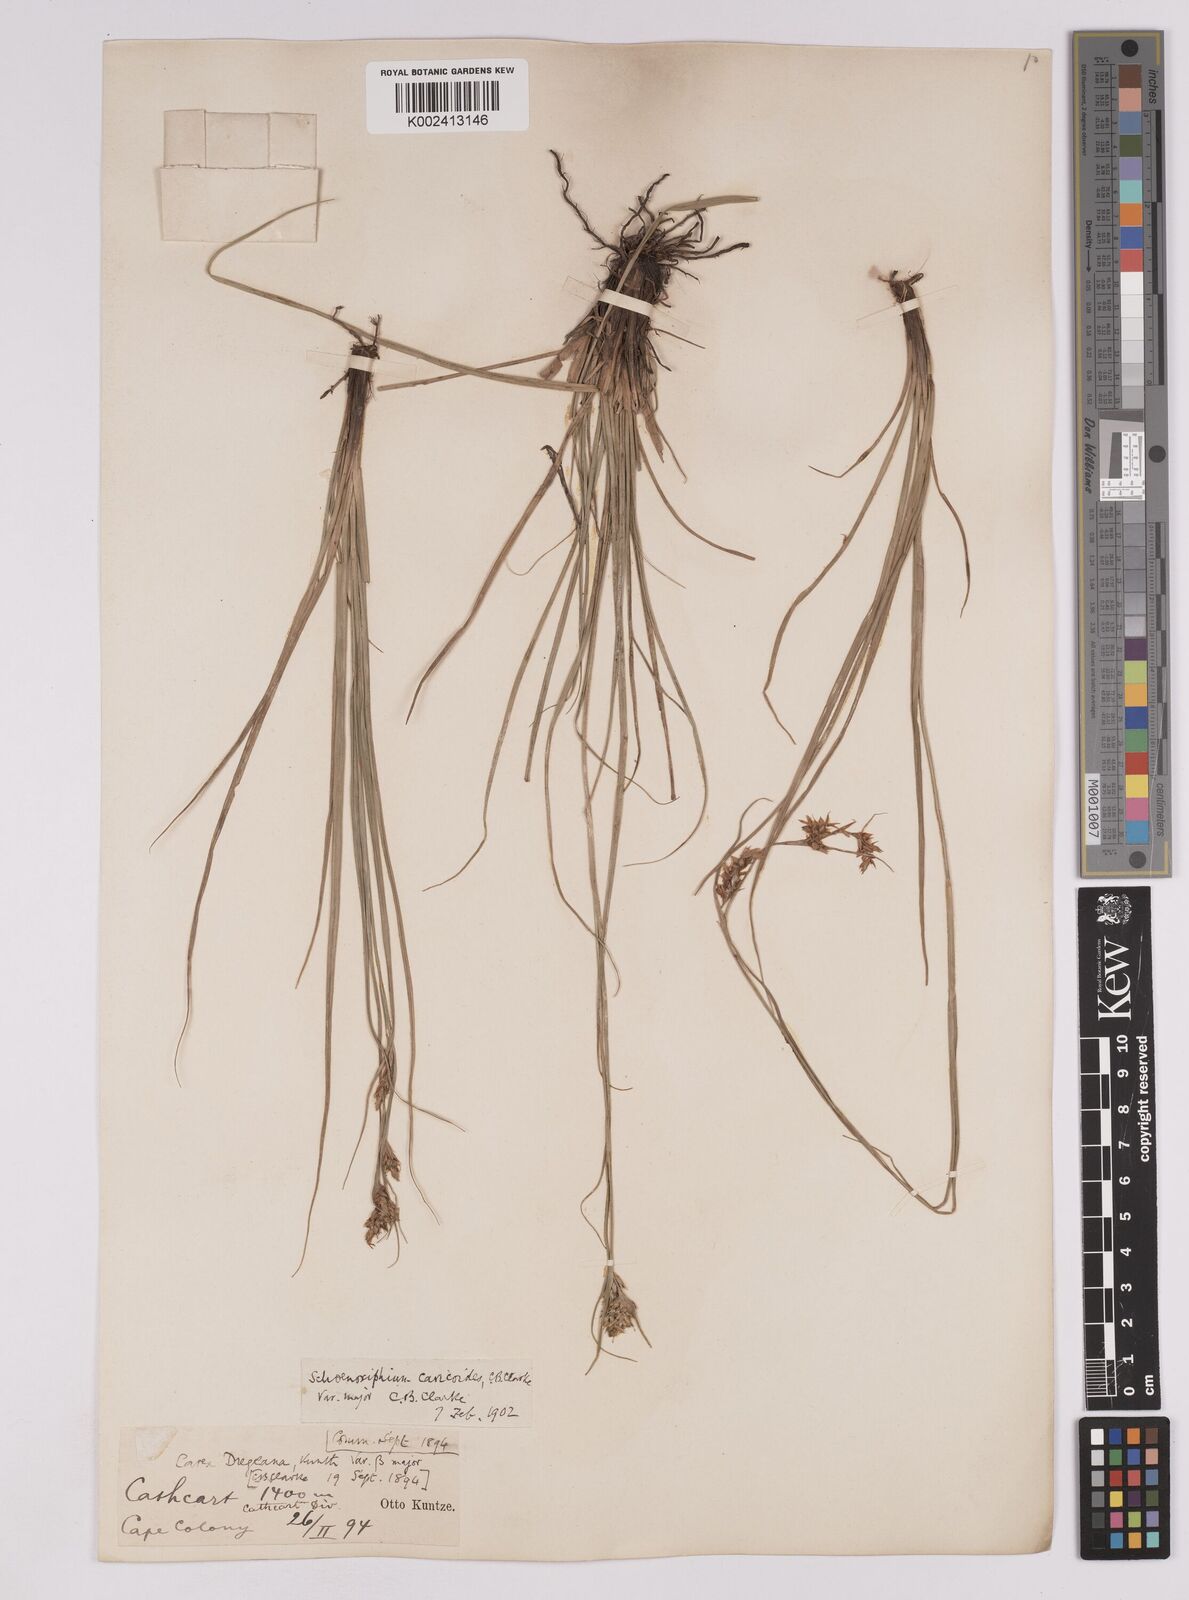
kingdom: Plantae
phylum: Tracheophyta
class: Liliopsida
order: Poales
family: Cyperaceae
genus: Carex
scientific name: Carex spartea
